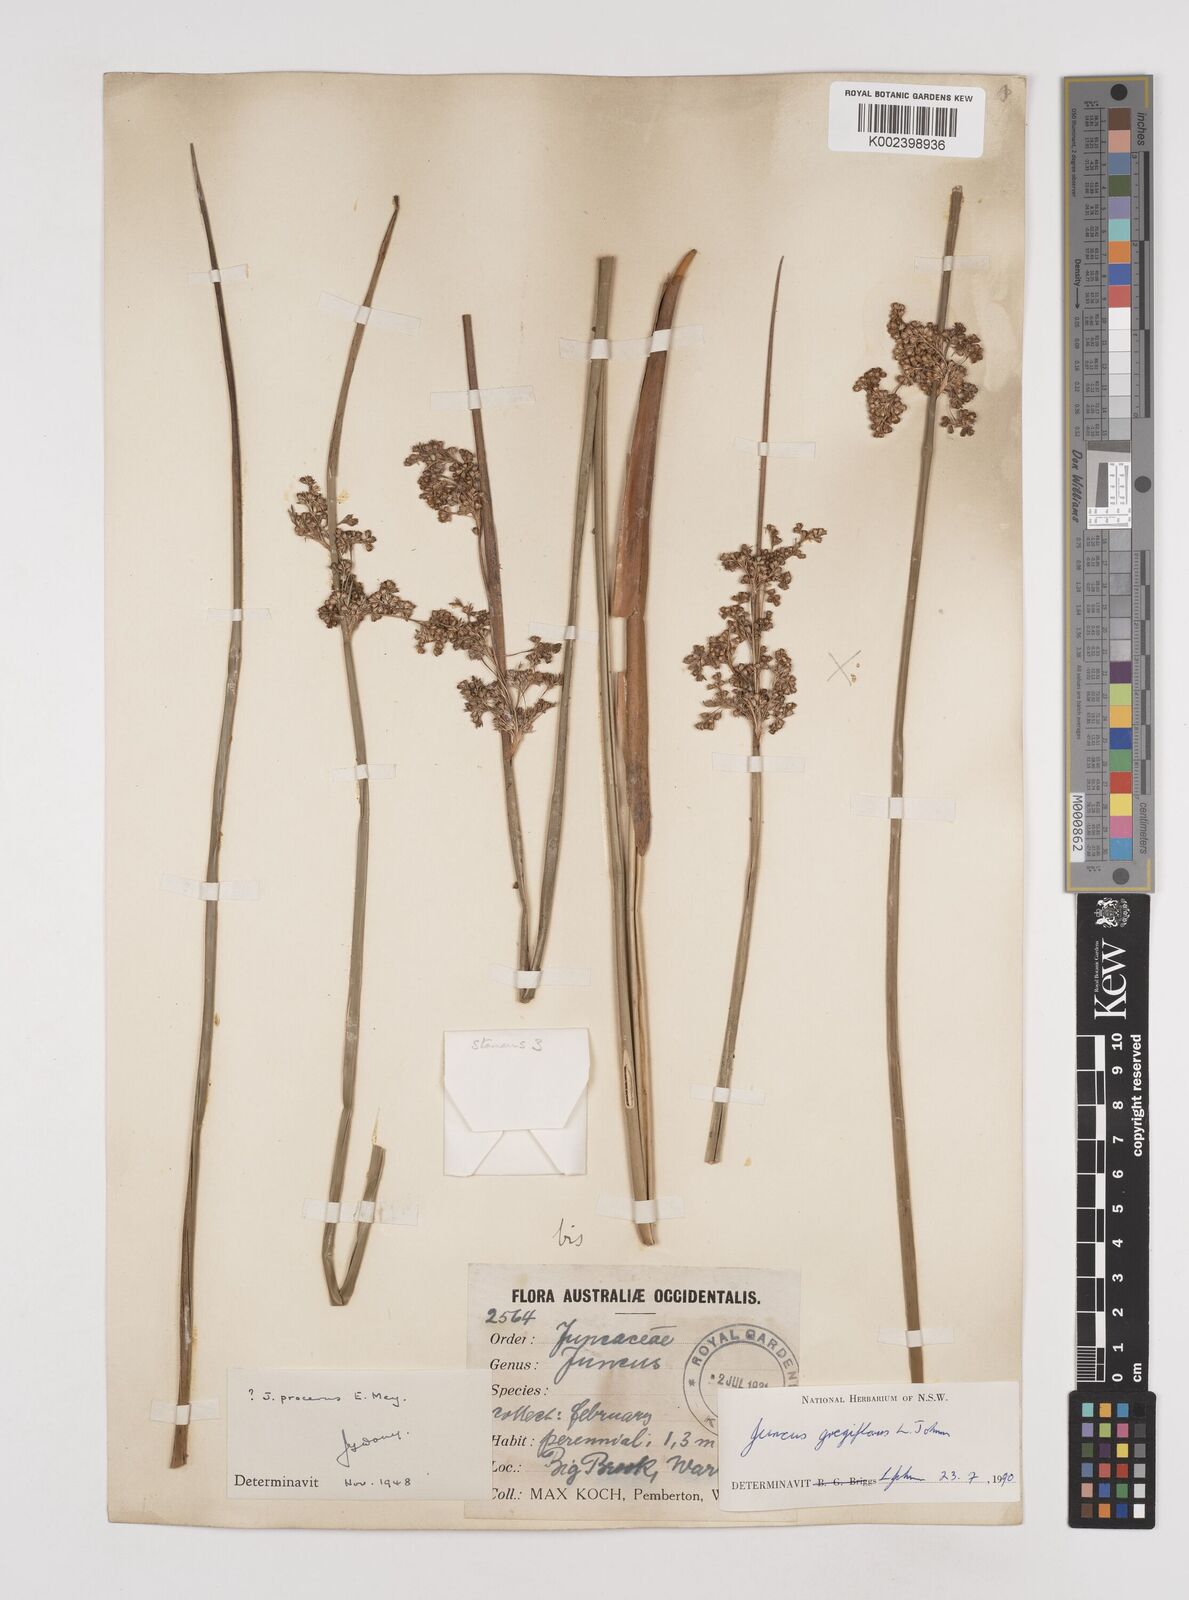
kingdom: Plantae
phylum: Tracheophyta
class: Liliopsida
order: Poales
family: Juncaceae
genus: Juncus
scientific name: Juncus gregiflorus
